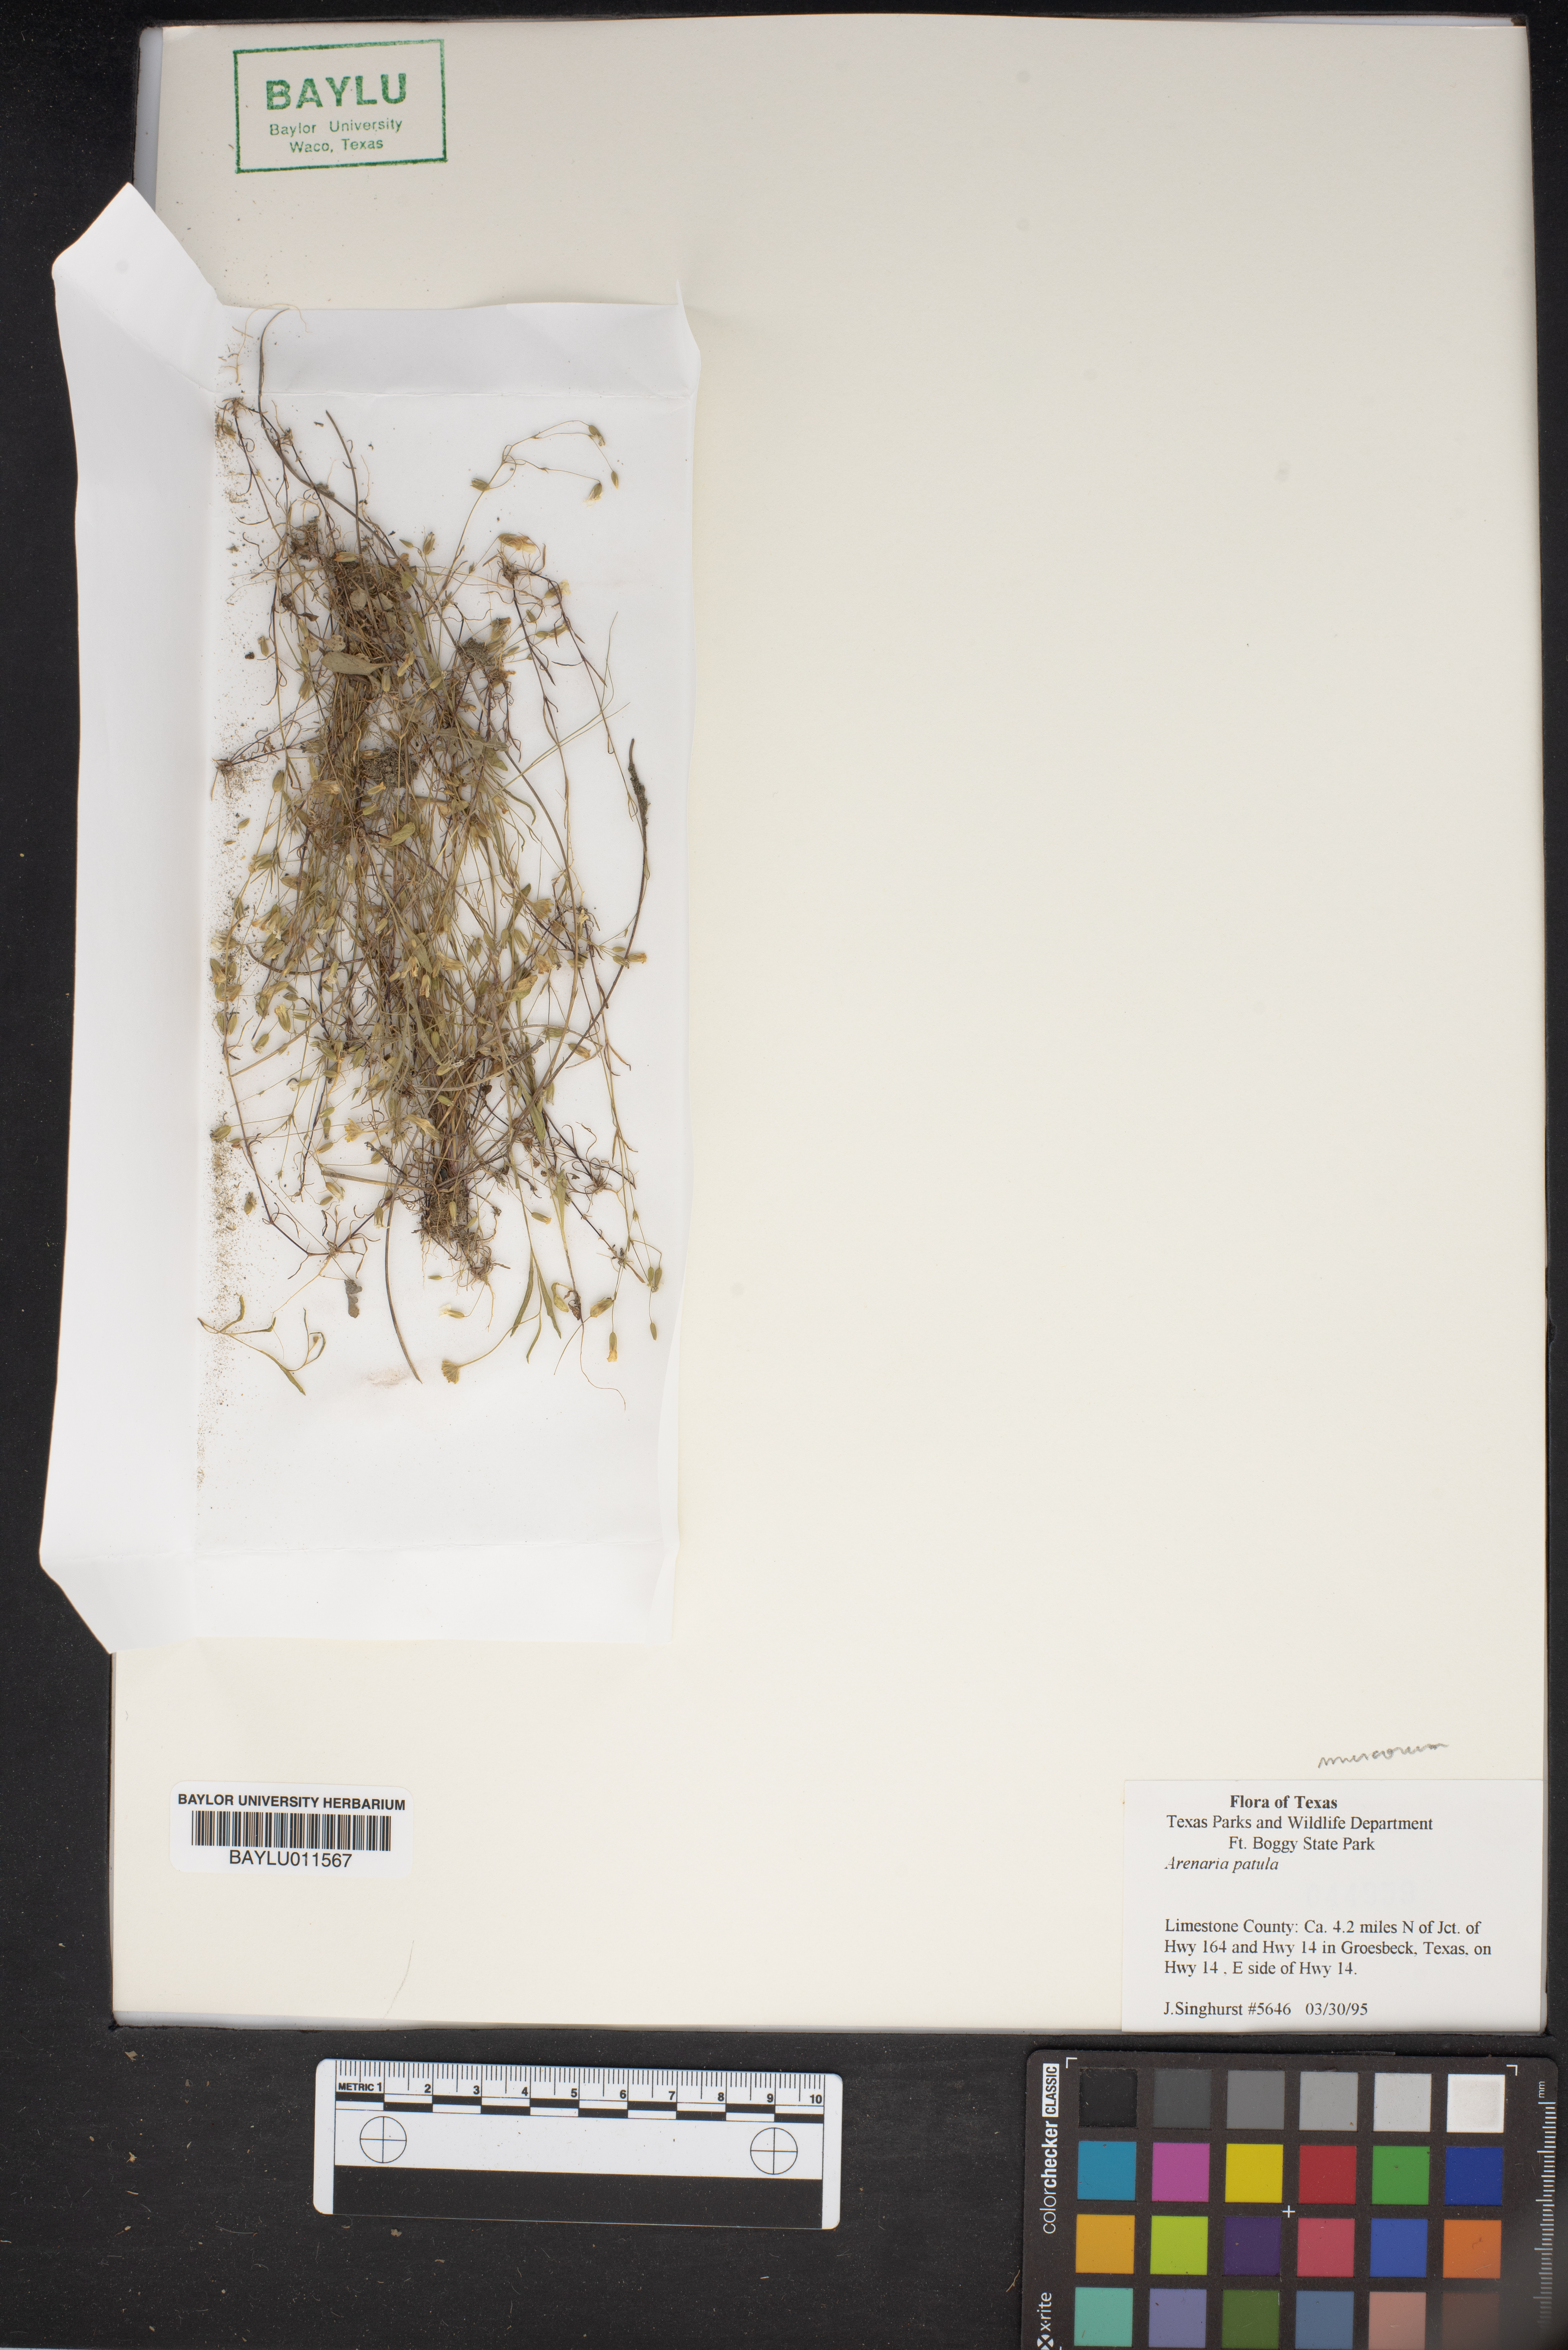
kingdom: Plantae
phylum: Tracheophyta
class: Magnoliopsida
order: Caryophyllales
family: Caryophyllaceae
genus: Mononeuria
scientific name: Mononeuria patula
